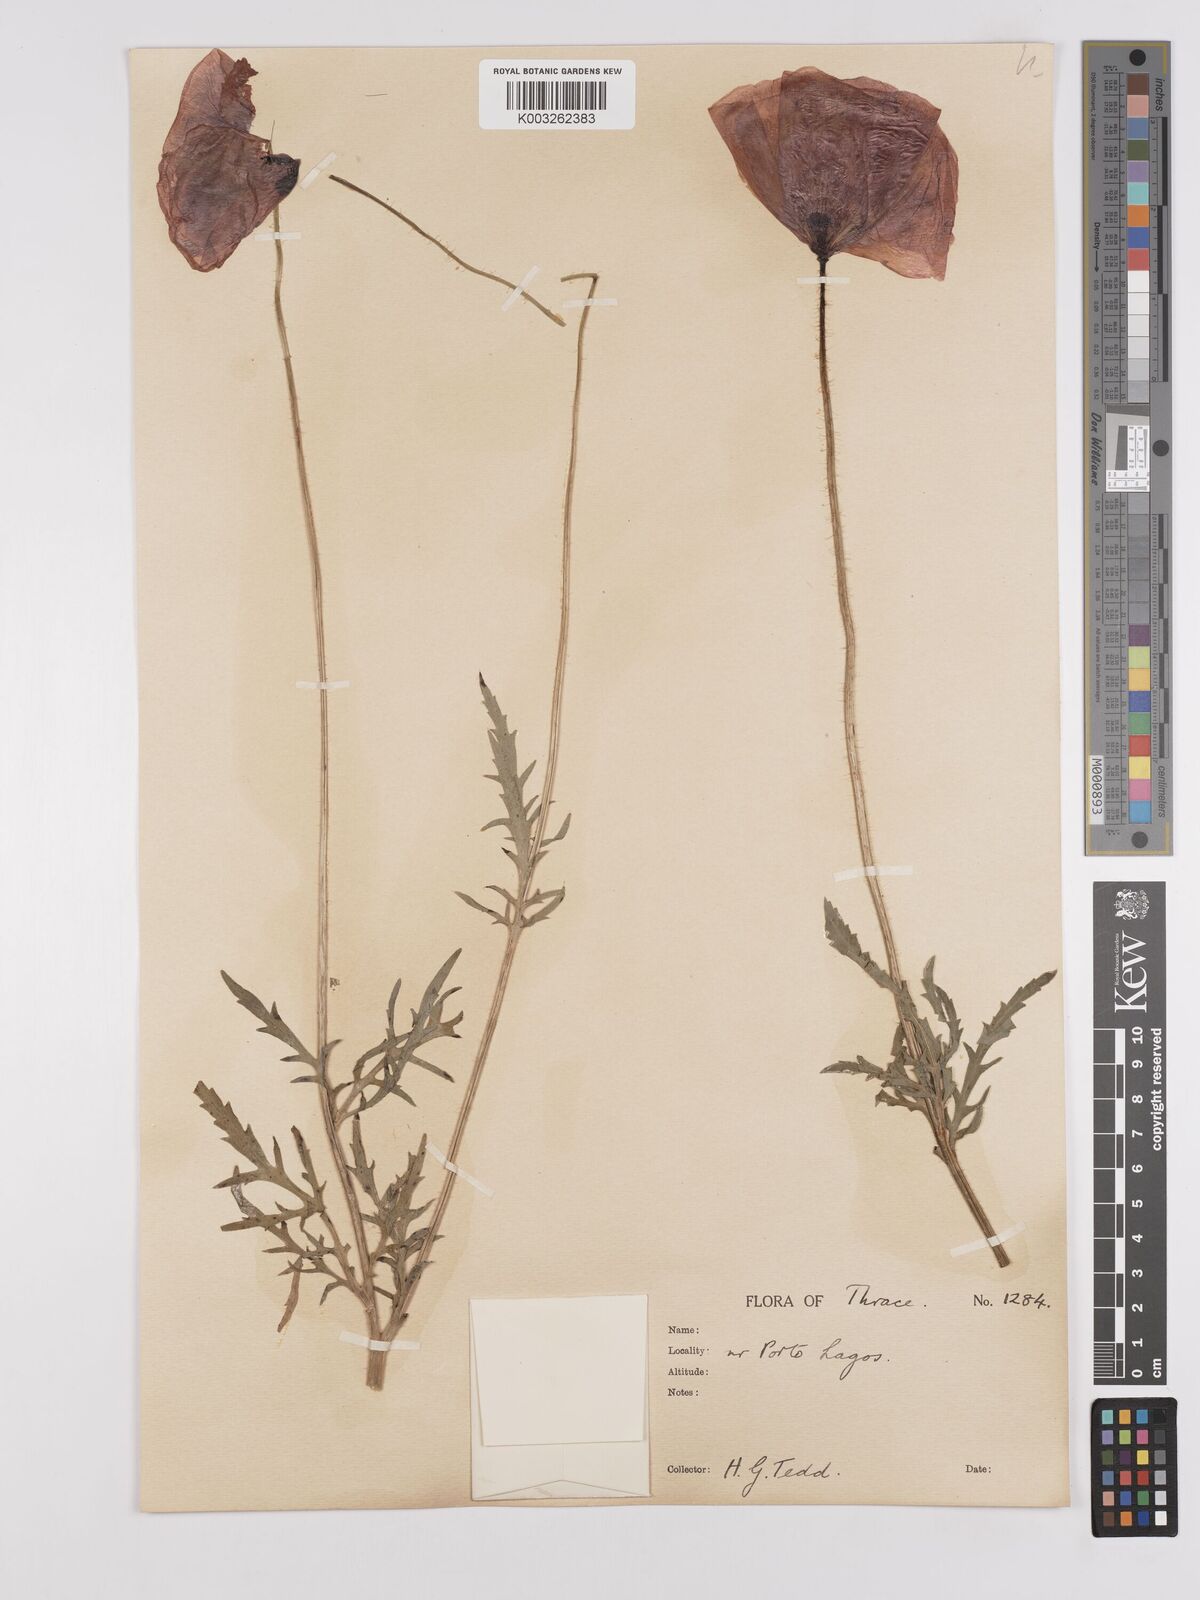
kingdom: Plantae
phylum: Tracheophyta
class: Magnoliopsida
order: Ranunculales
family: Papaveraceae
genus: Papaver
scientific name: Papaver rhoeas
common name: Corn poppy
